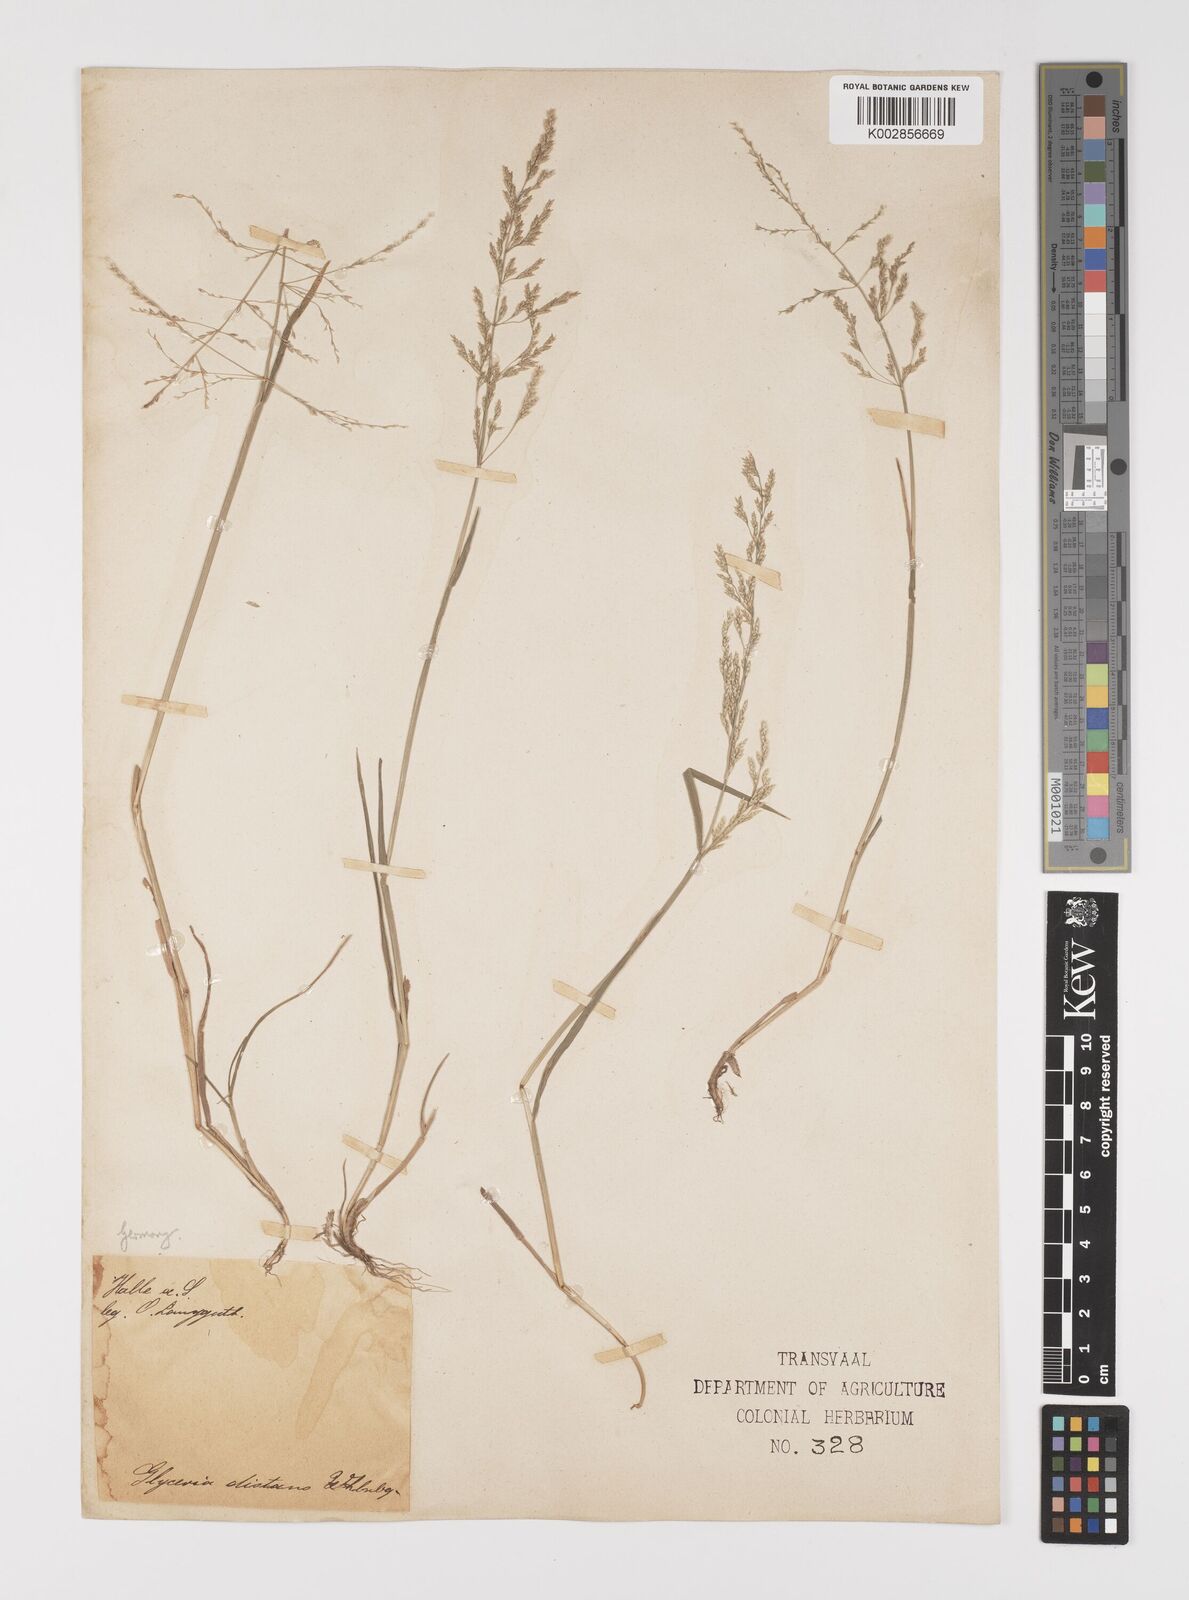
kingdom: Plantae
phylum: Tracheophyta
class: Liliopsida
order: Poales
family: Poaceae
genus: Puccinellia
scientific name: Puccinellia
